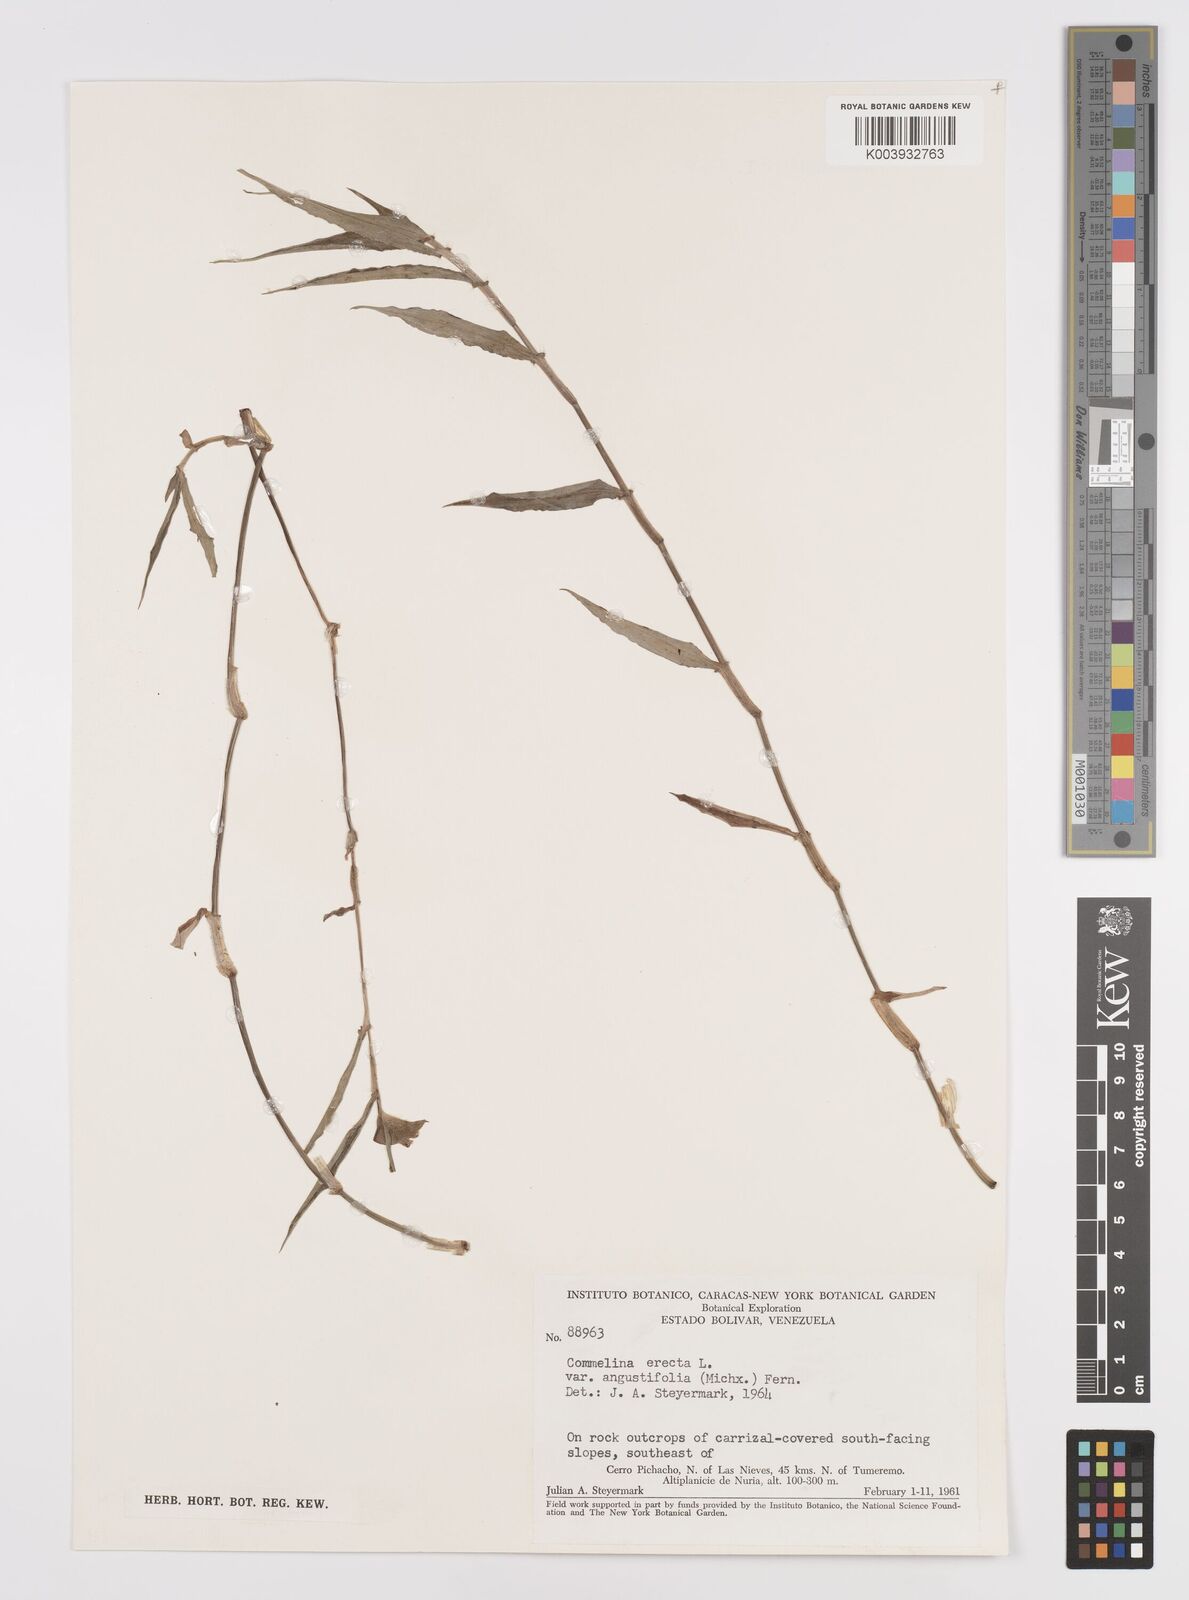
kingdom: Plantae
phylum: Tracheophyta
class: Liliopsida
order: Commelinales
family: Commelinaceae
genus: Commelina
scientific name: Commelina erecta
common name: Blousel blommetjie
